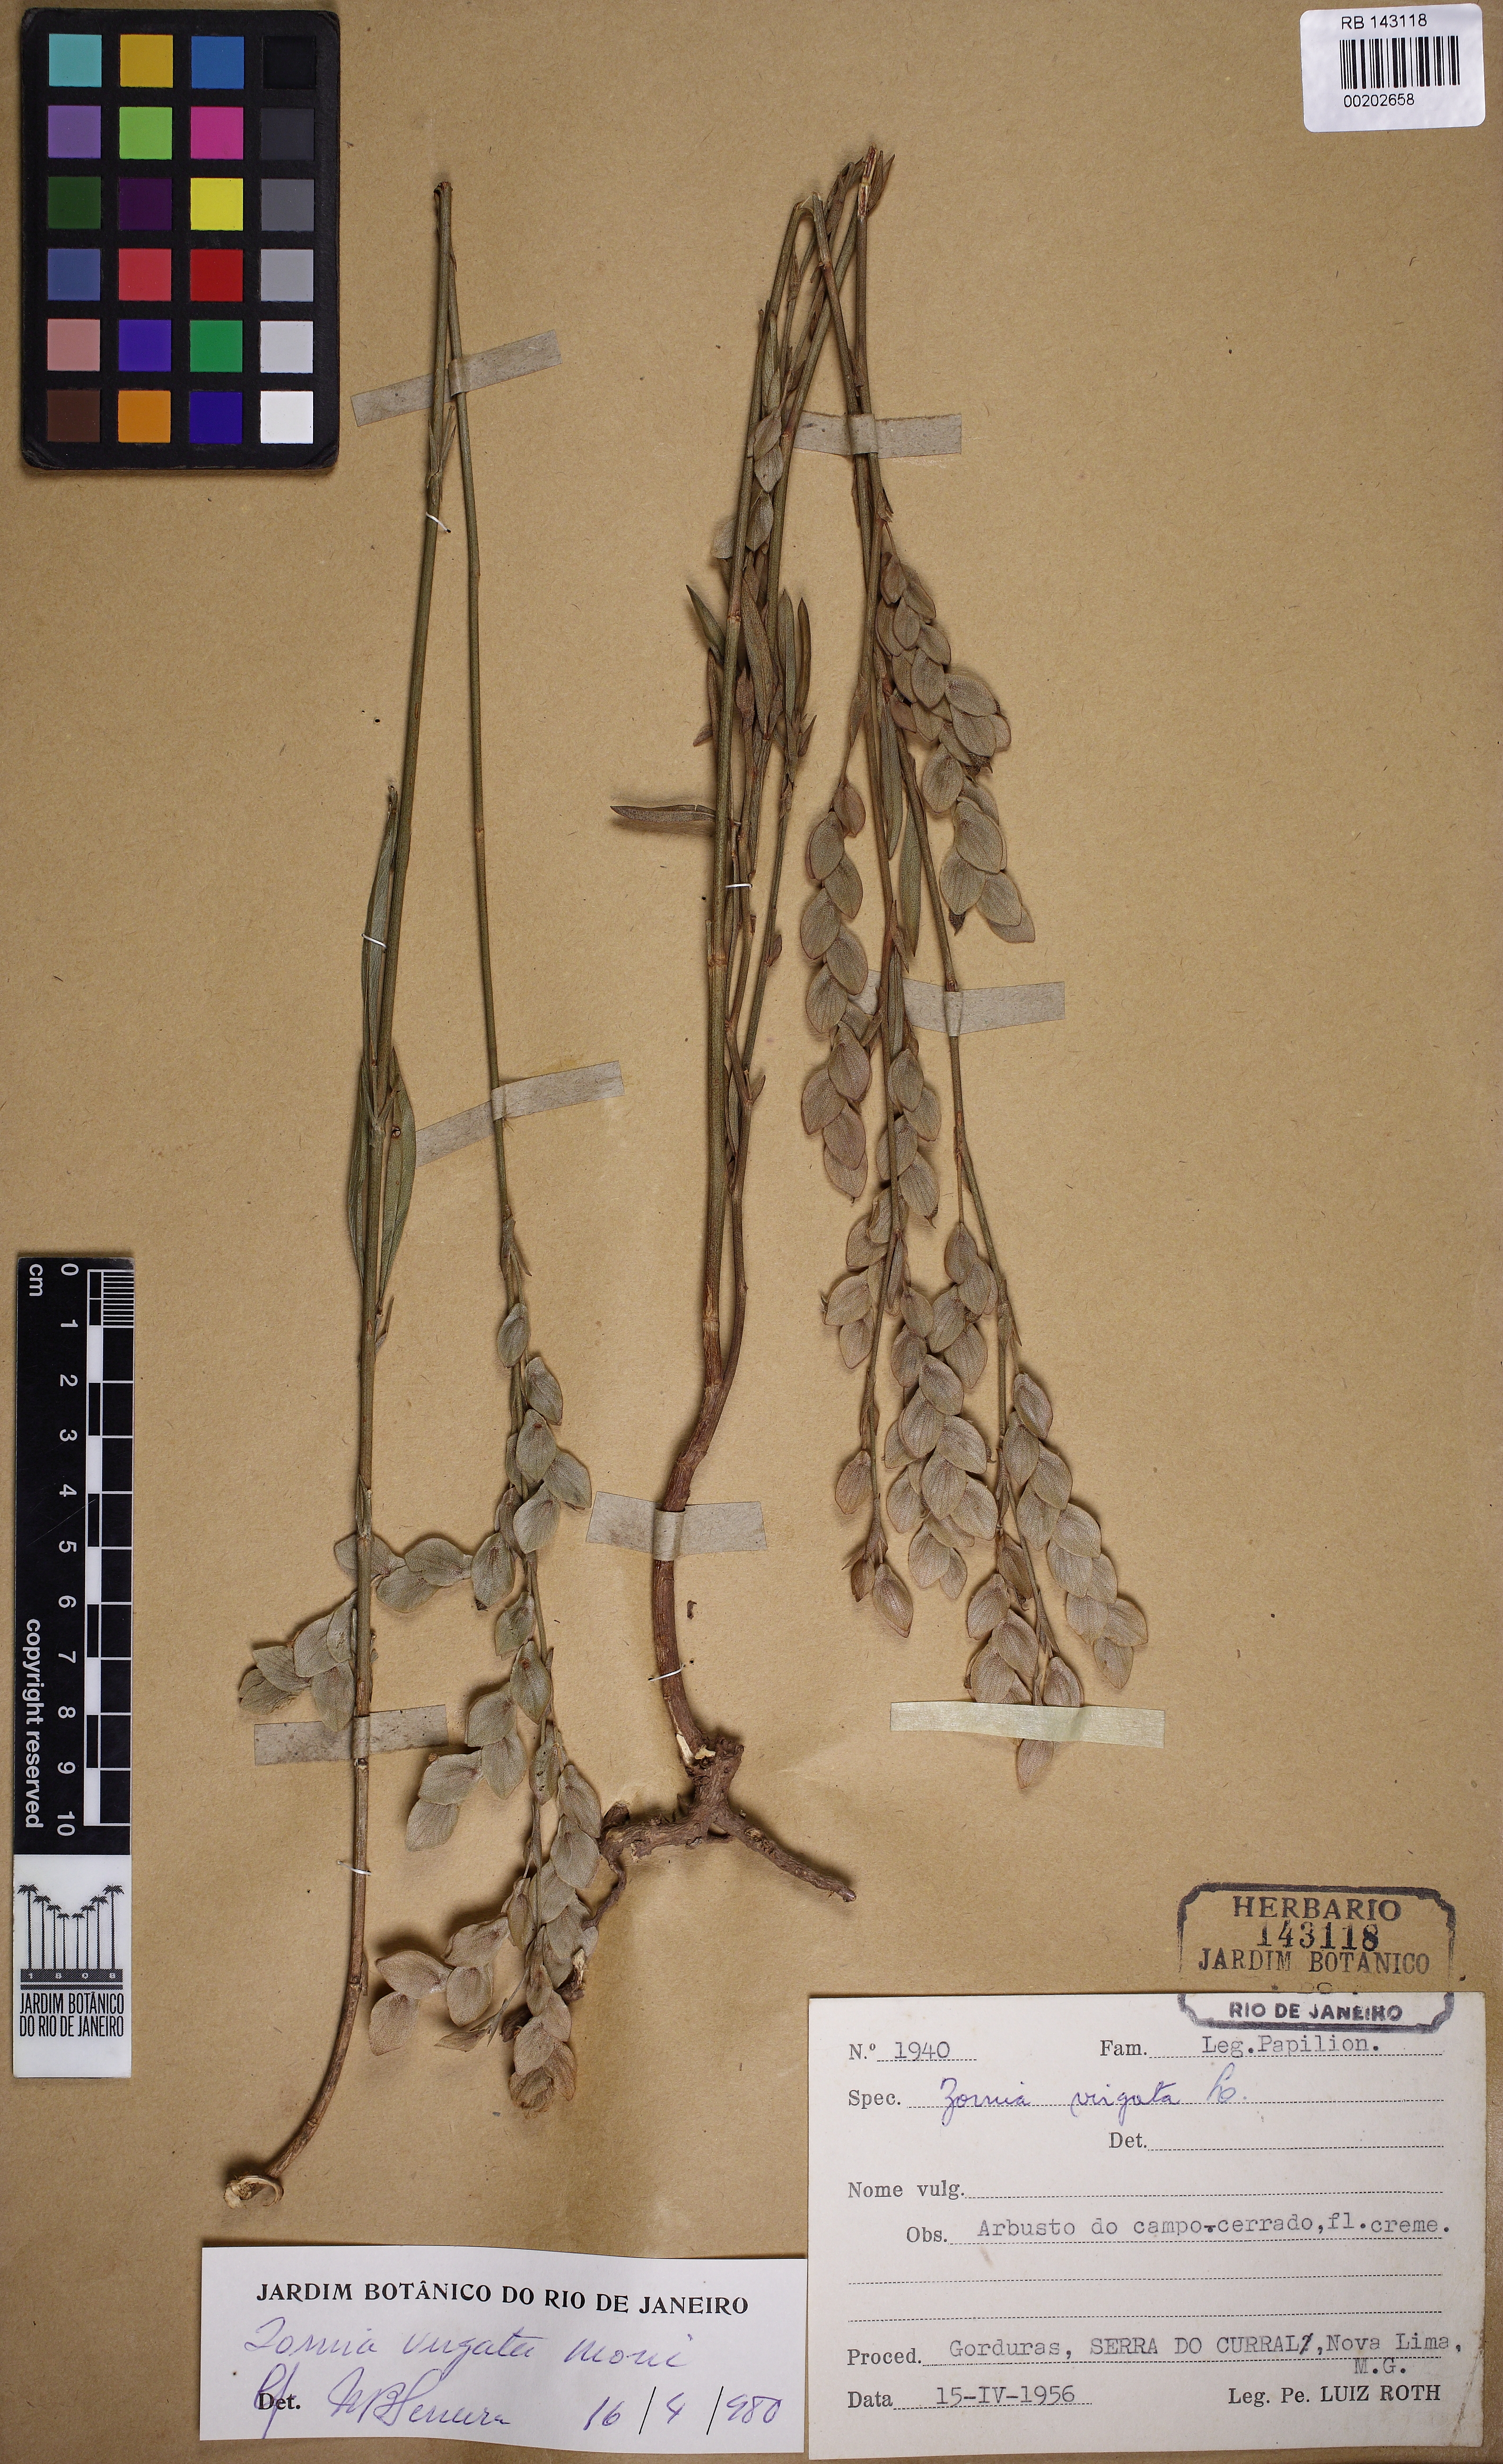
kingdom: Plantae
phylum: Tracheophyta
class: Magnoliopsida
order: Fabales
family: Fabaceae
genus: Zornia
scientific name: Zornia virgata
